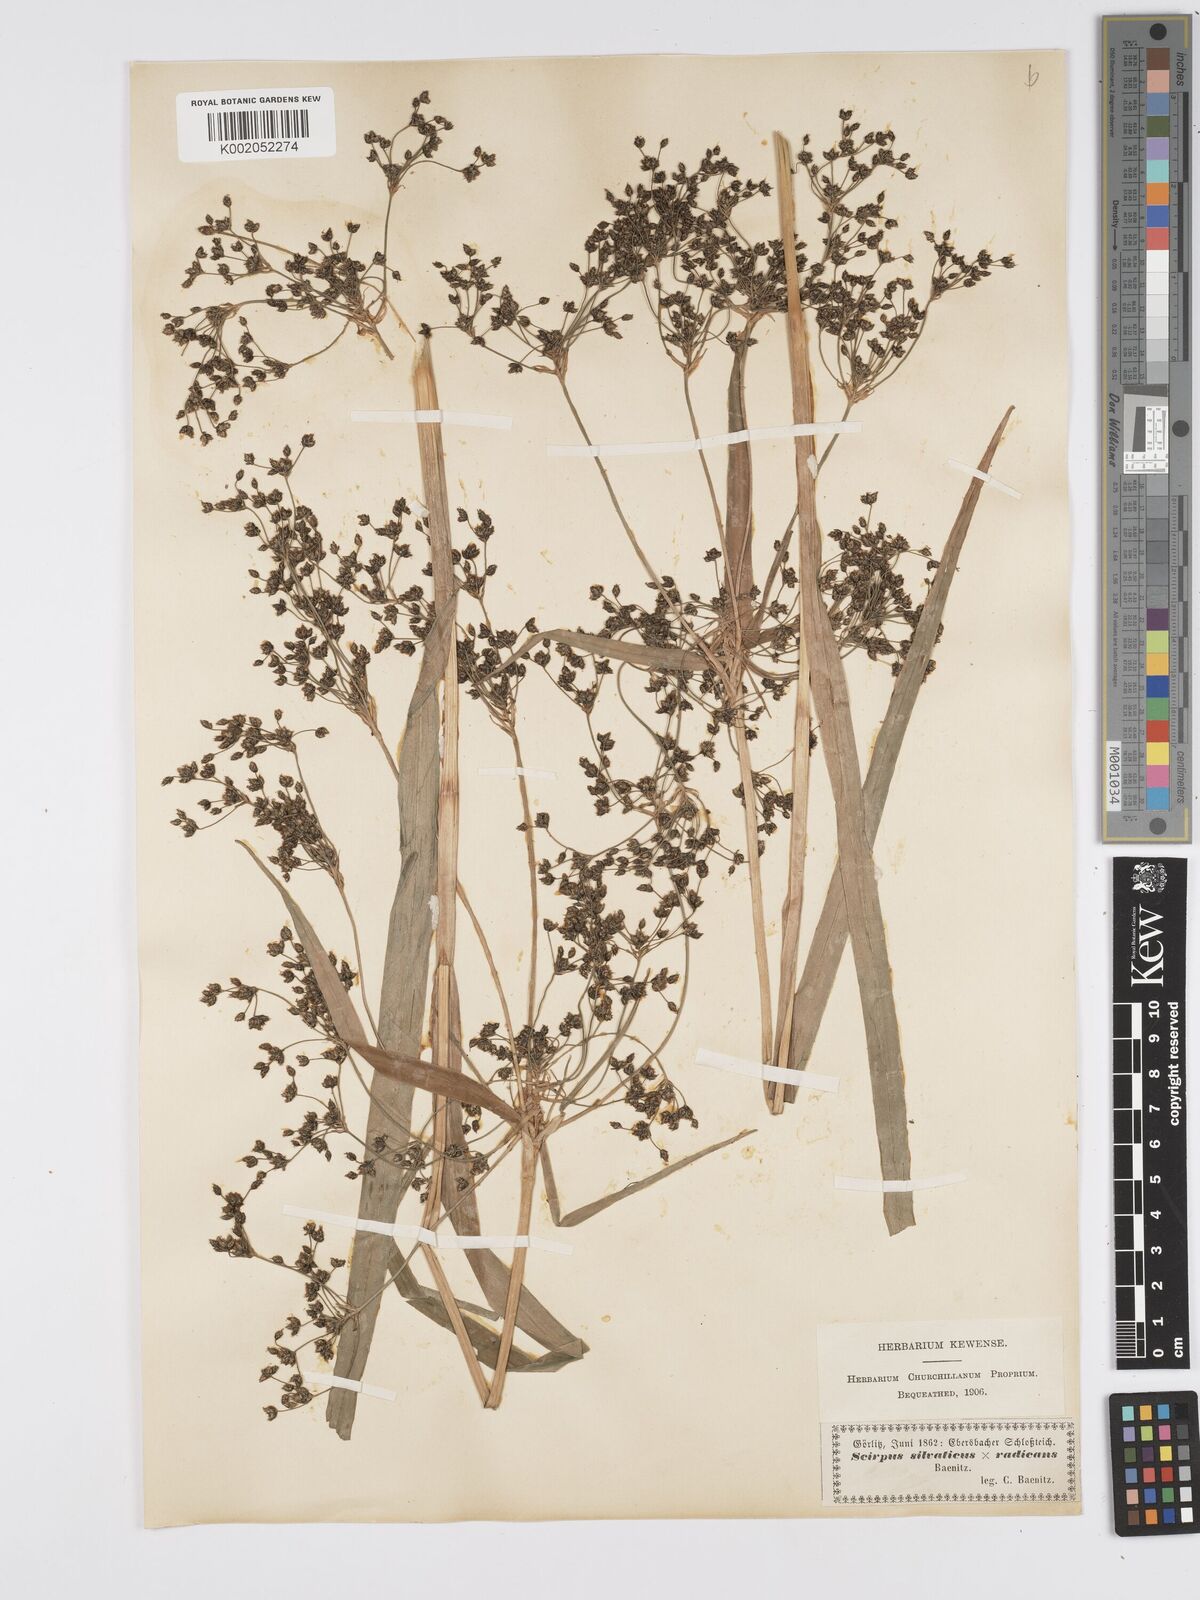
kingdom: Plantae
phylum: Tracheophyta
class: Liliopsida
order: Poales
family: Cyperaceae
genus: Scirpus
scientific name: Scirpus radicans
